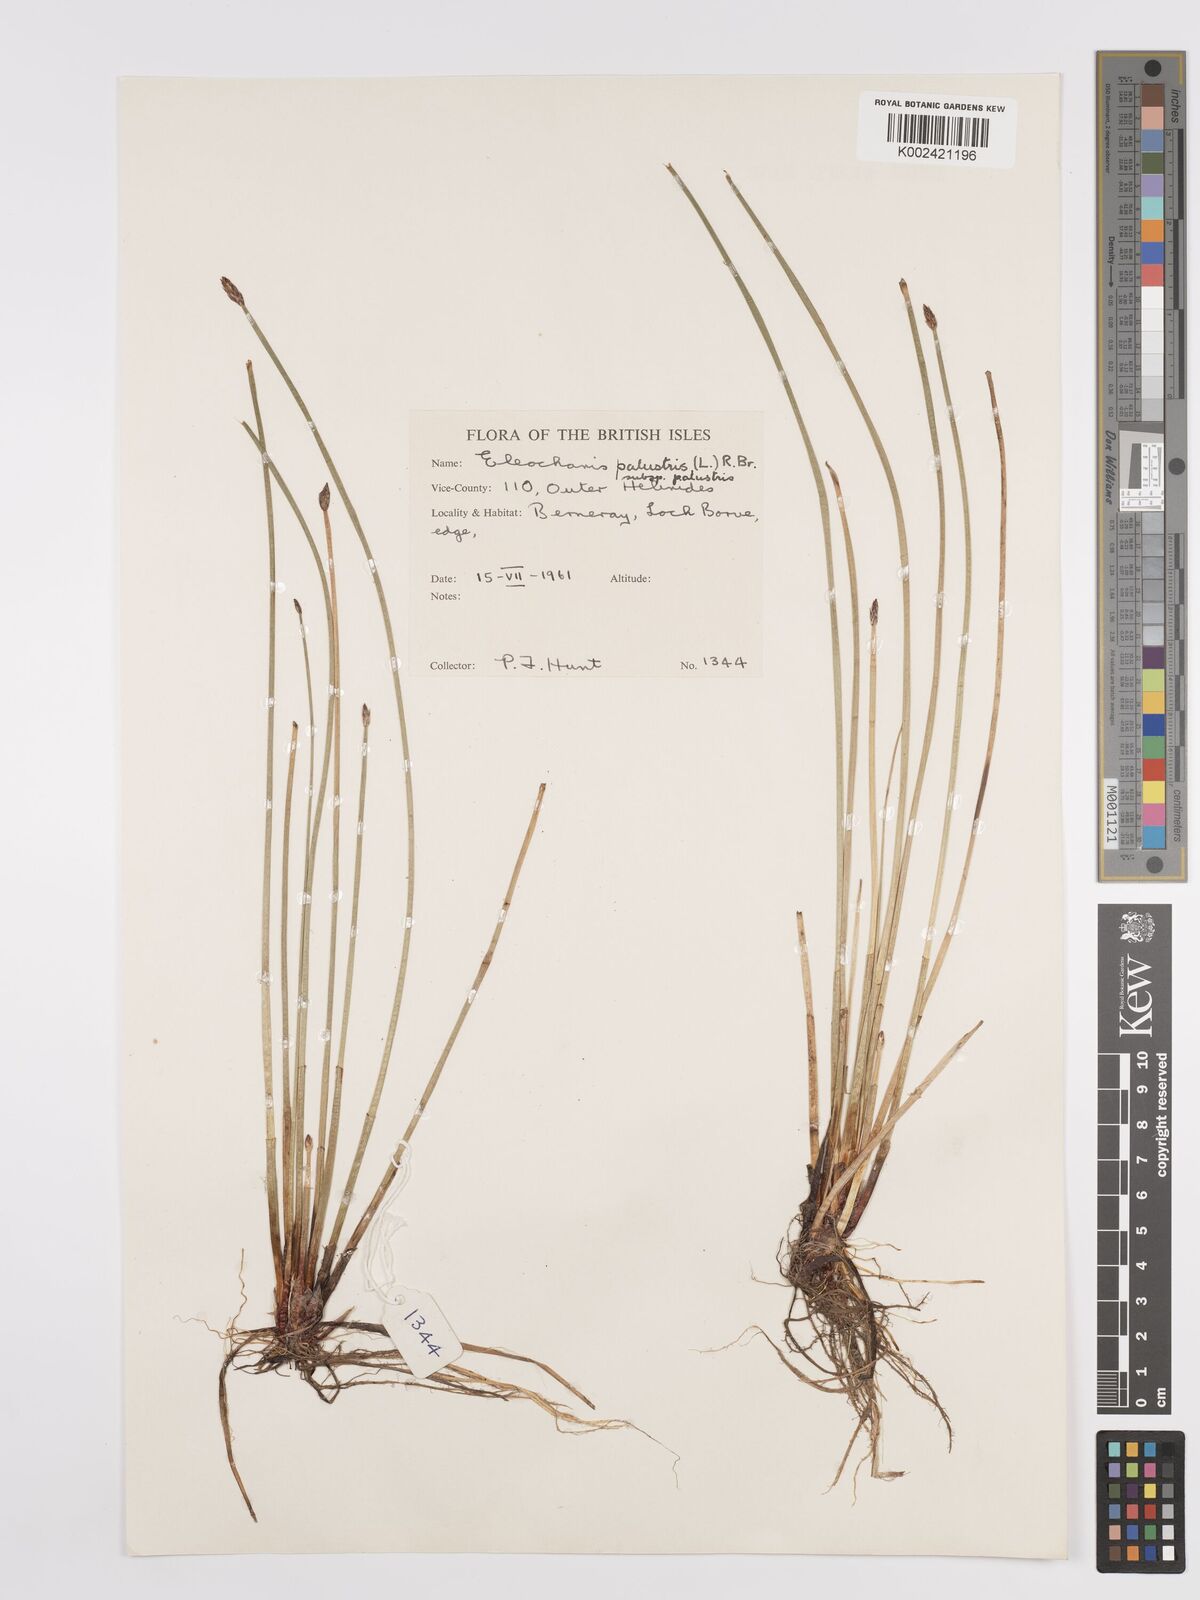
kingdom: Plantae
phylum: Tracheophyta
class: Liliopsida
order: Poales
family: Cyperaceae
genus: Eleocharis
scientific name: Eleocharis palustris
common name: Common spike-rush
